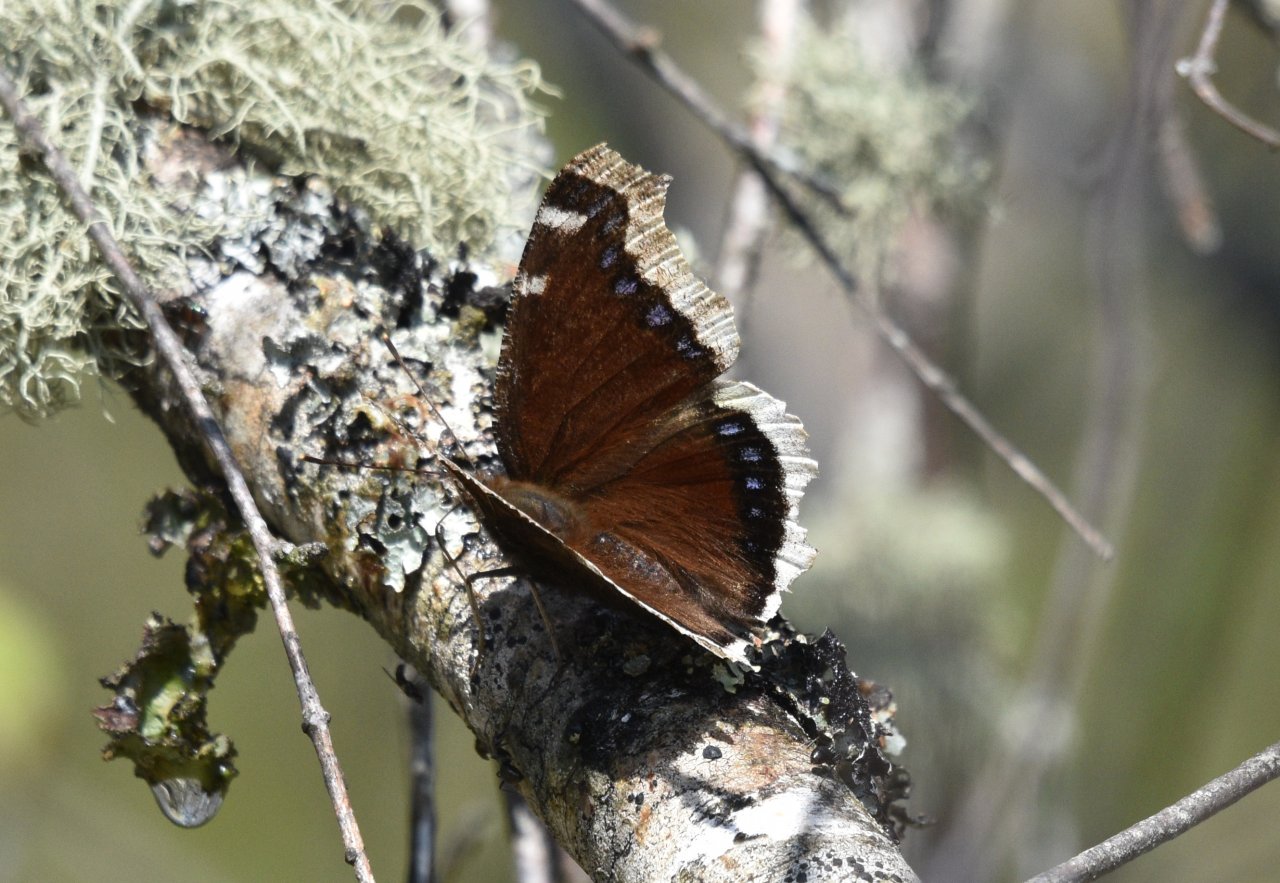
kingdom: Animalia
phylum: Arthropoda
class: Insecta
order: Lepidoptera
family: Nymphalidae
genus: Nymphalis
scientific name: Nymphalis antiopa
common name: Mourning Cloak
